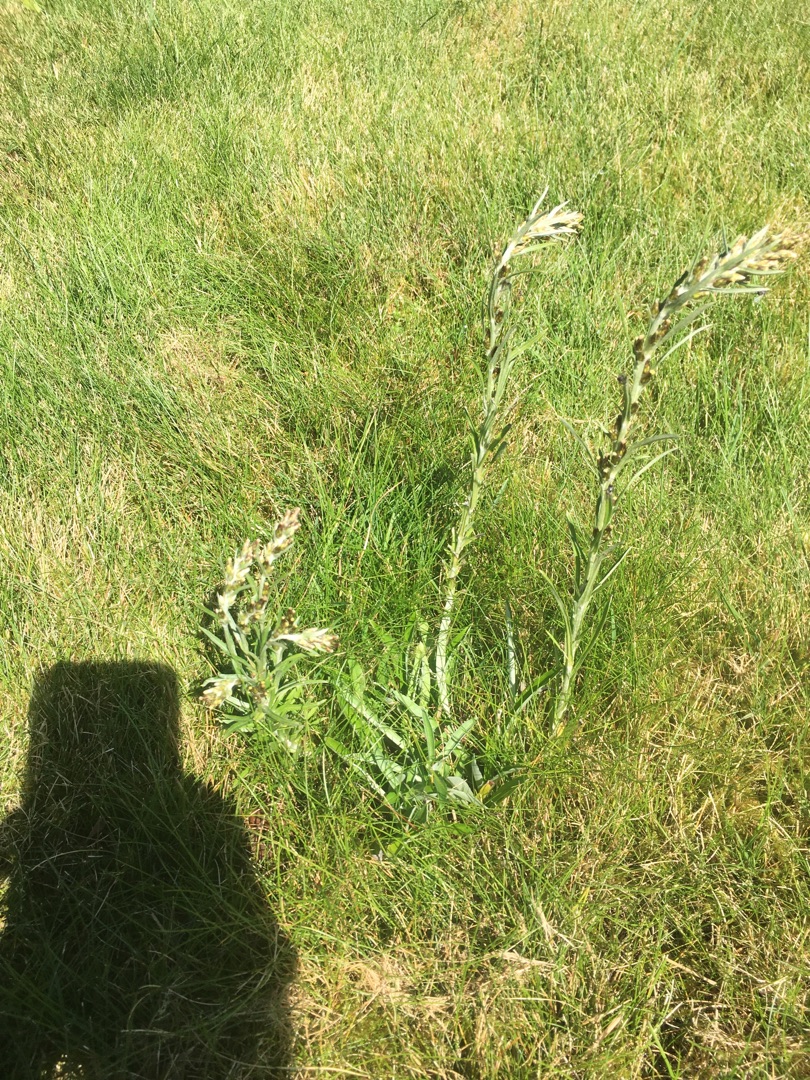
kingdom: Plantae
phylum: Tracheophyta
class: Magnoliopsida
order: Asterales
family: Asteraceae
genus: Omalotheca
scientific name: Omalotheca sylvatica
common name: Rank evighedsblomst
